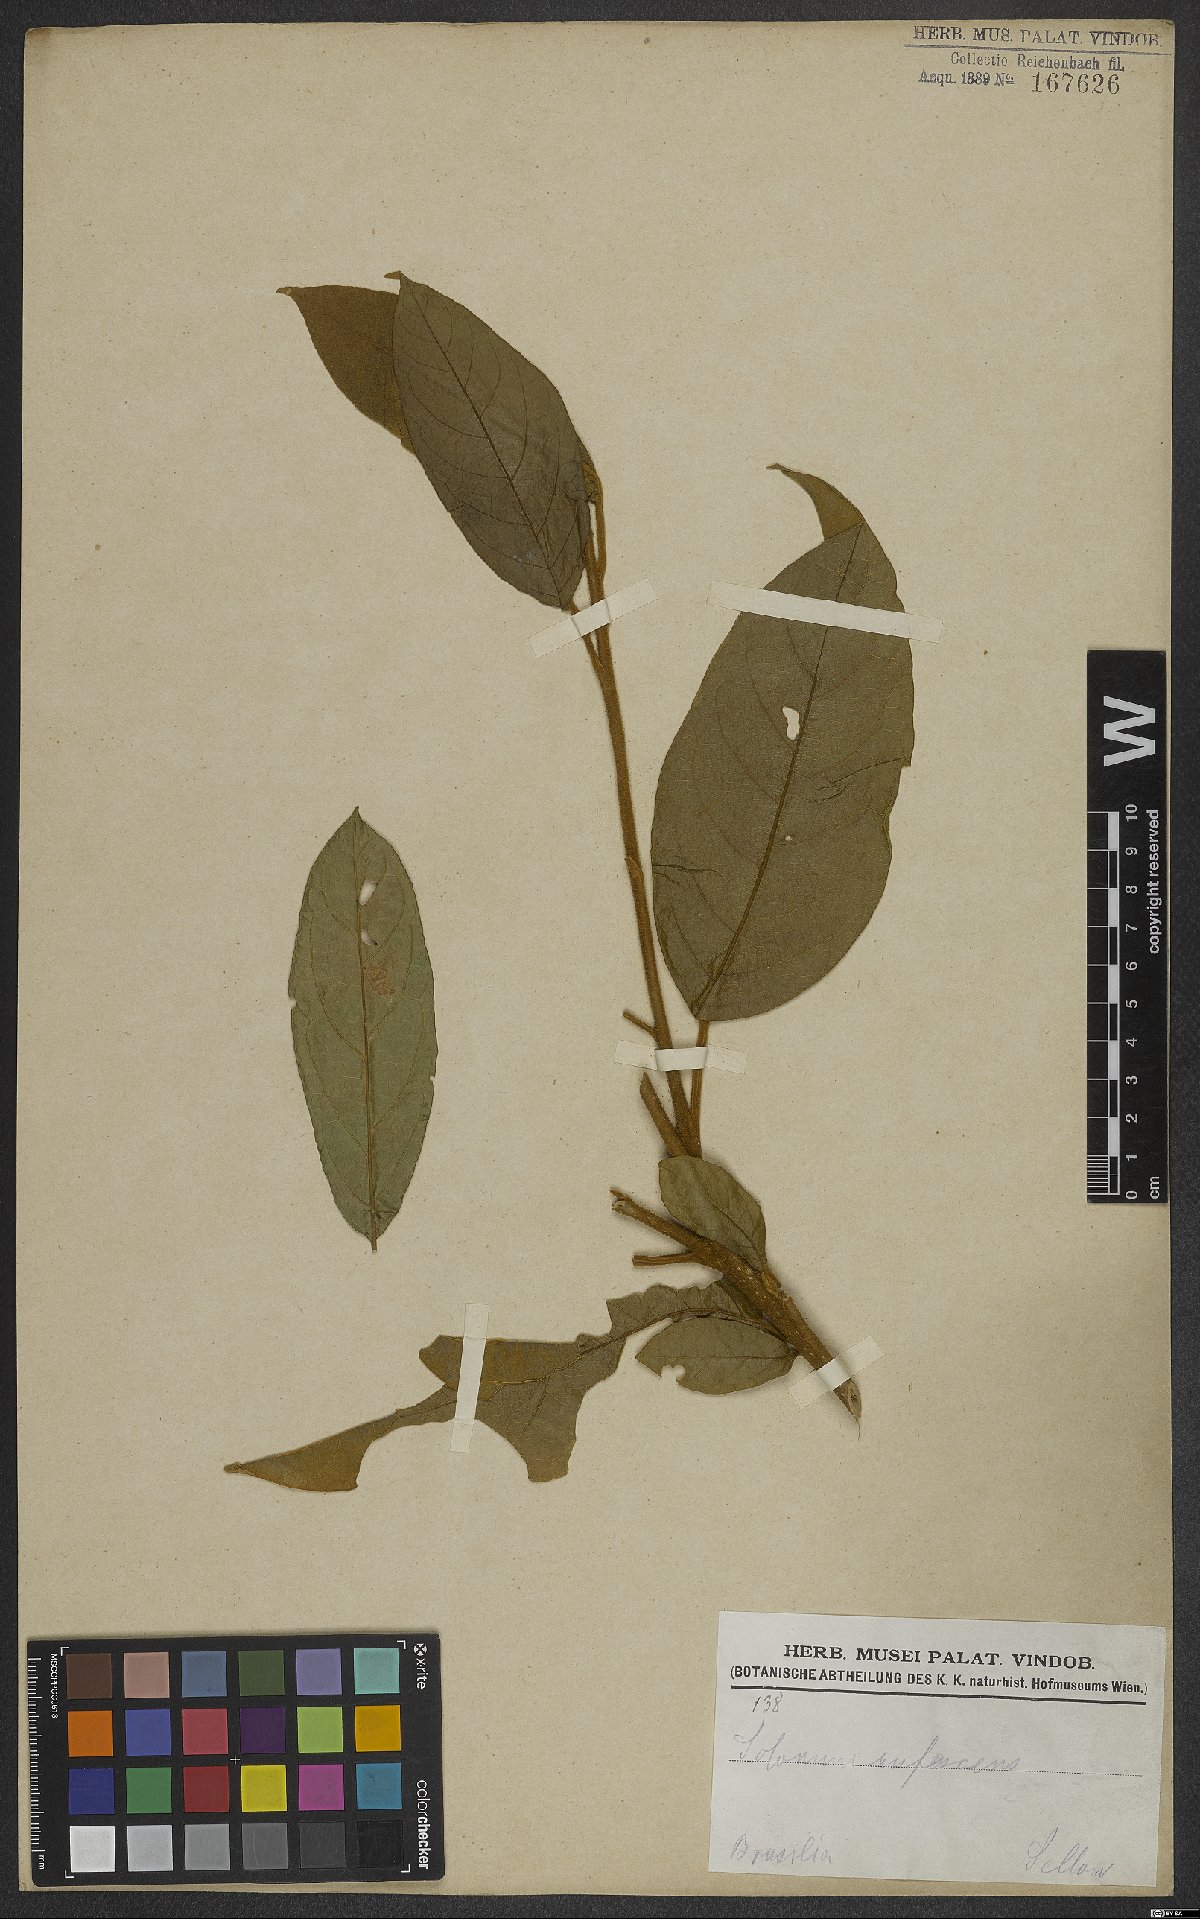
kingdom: Plantae
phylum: Tracheophyta
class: Magnoliopsida
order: Solanales
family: Solanaceae
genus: Solanum
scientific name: Solanum rufescens
